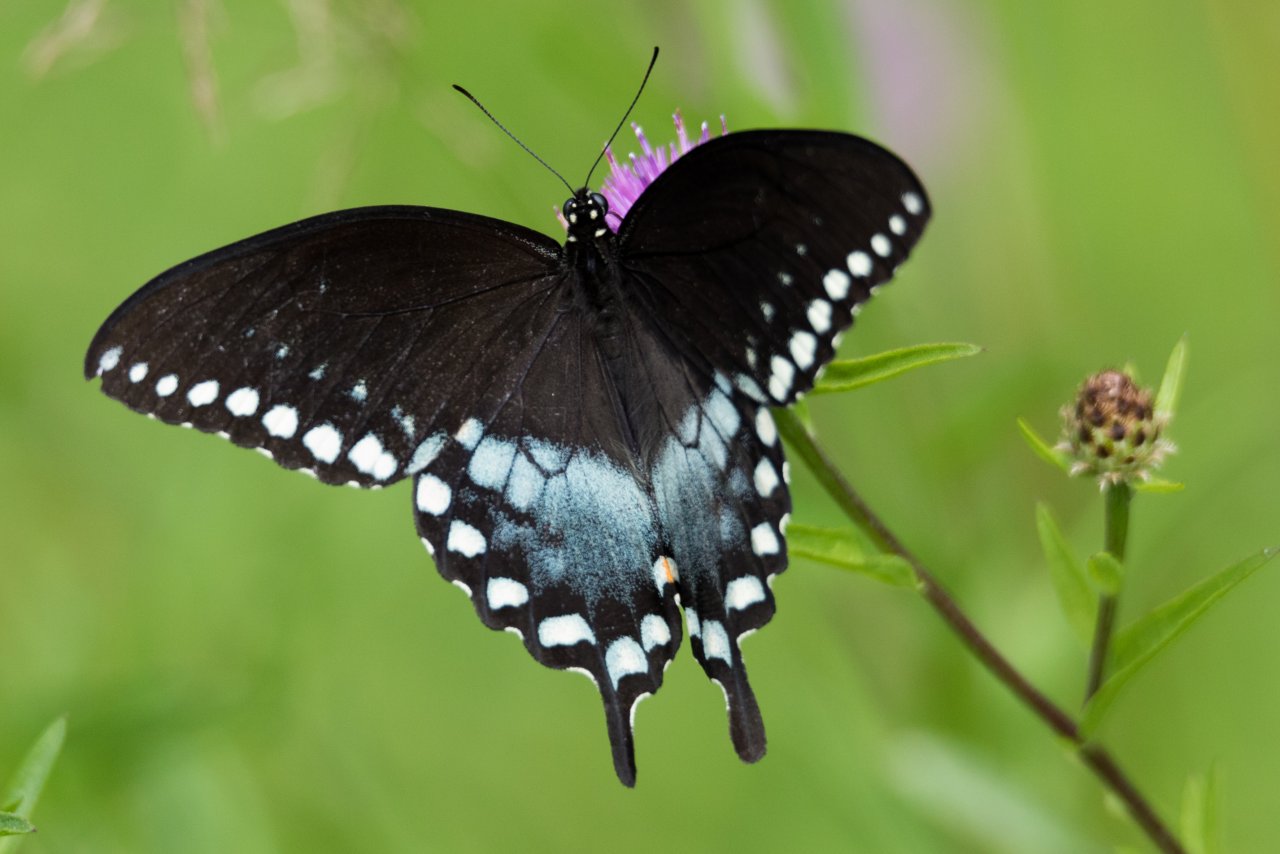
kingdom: Animalia
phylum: Arthropoda
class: Insecta
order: Lepidoptera
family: Papilionidae
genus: Pterourus
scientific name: Pterourus troilus
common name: Spicebush Swallowtail
